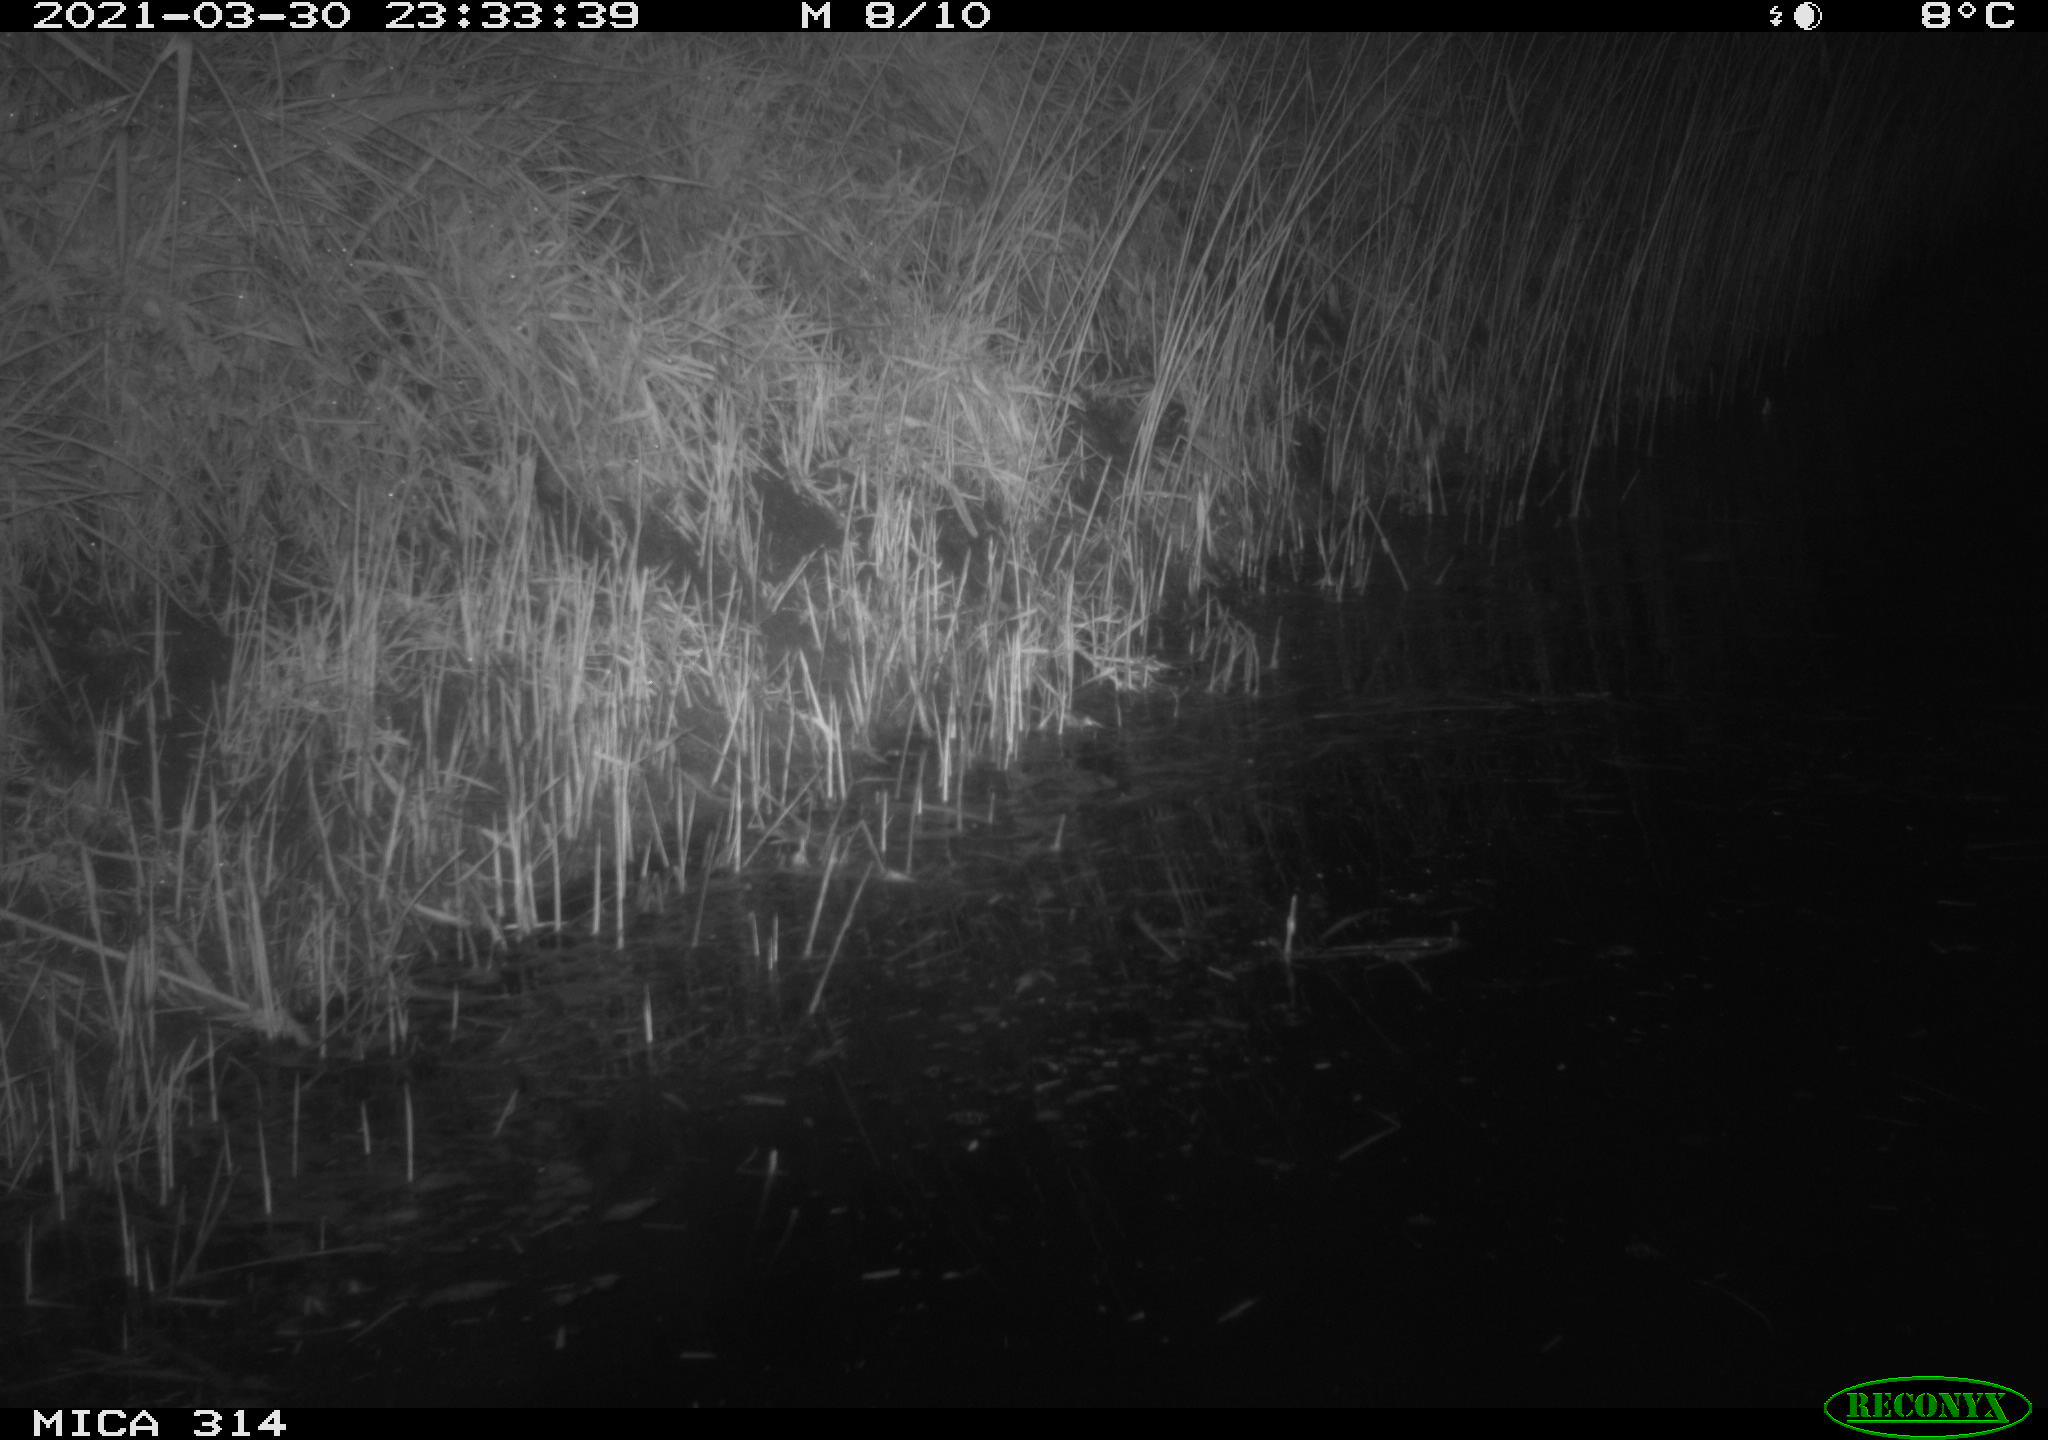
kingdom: Animalia
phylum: Chordata
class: Mammalia
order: Rodentia
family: Muridae
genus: Rattus
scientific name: Rattus norvegicus
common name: Brown rat
